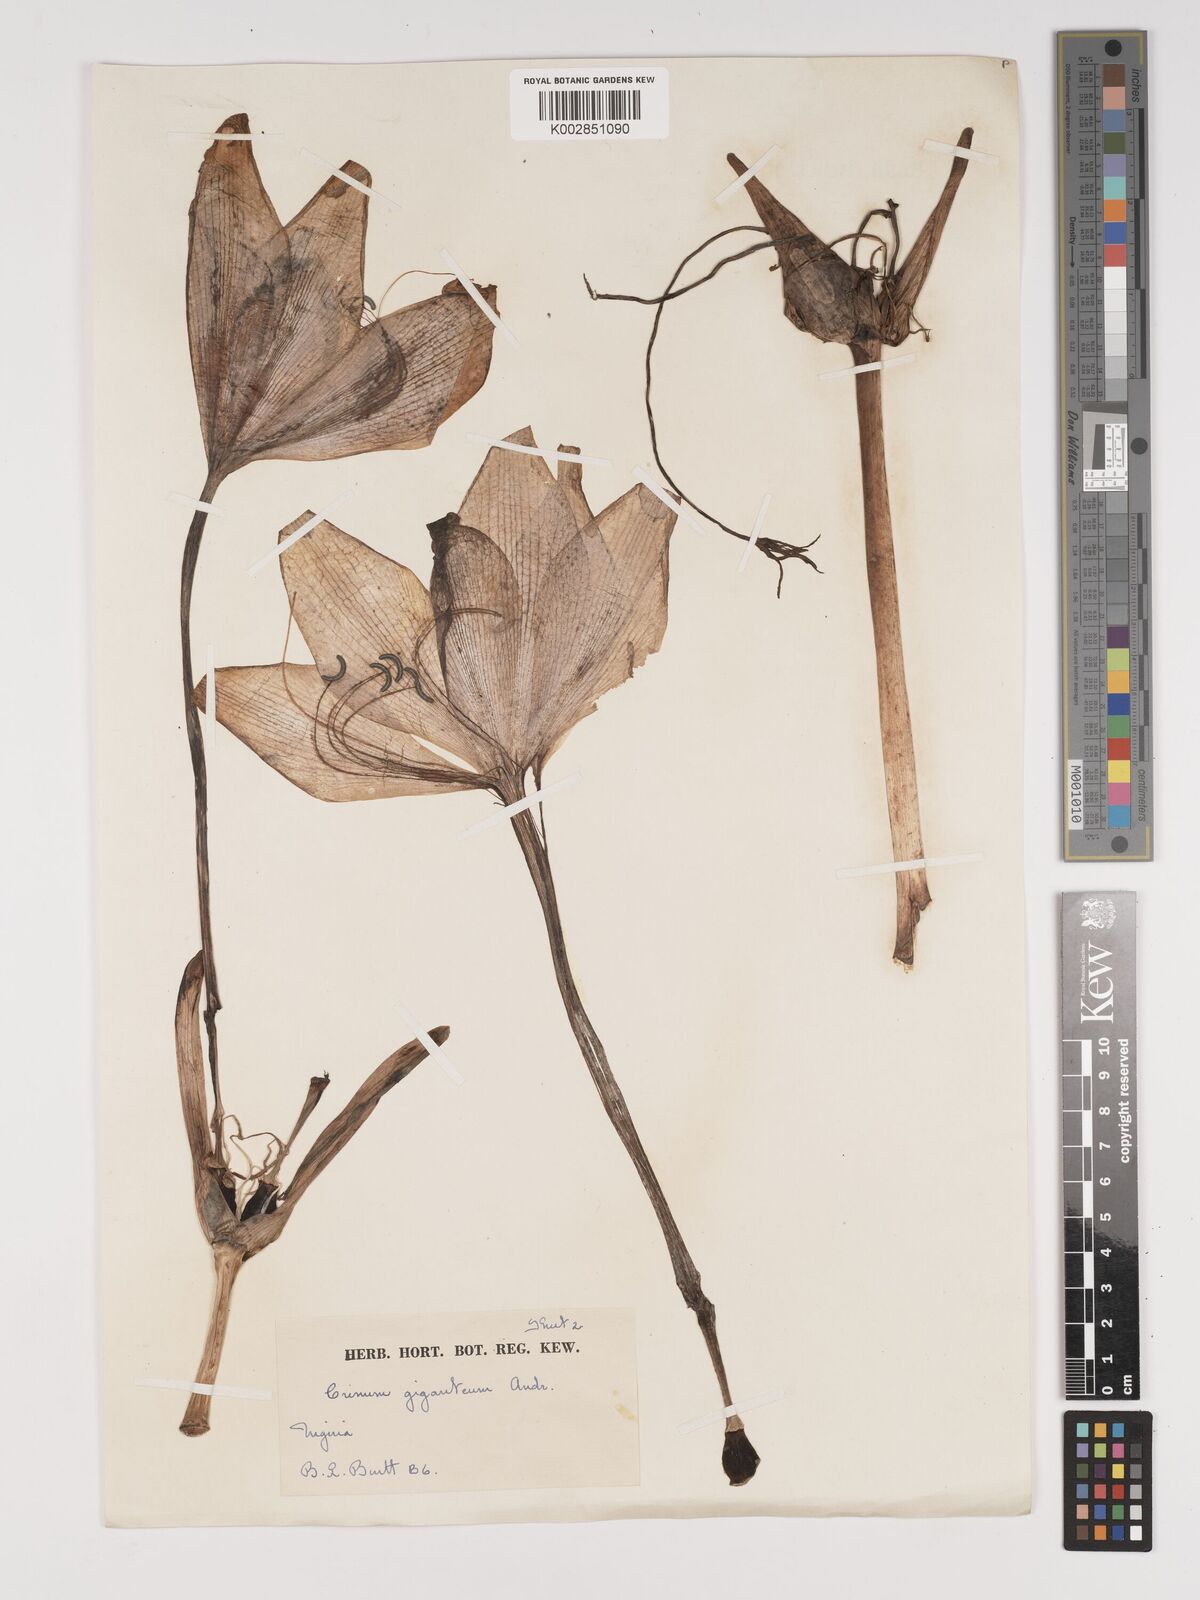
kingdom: Plantae
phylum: Tracheophyta
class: Liliopsida
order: Asparagales
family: Amaryllidaceae
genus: Crinum
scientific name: Crinum jagus
